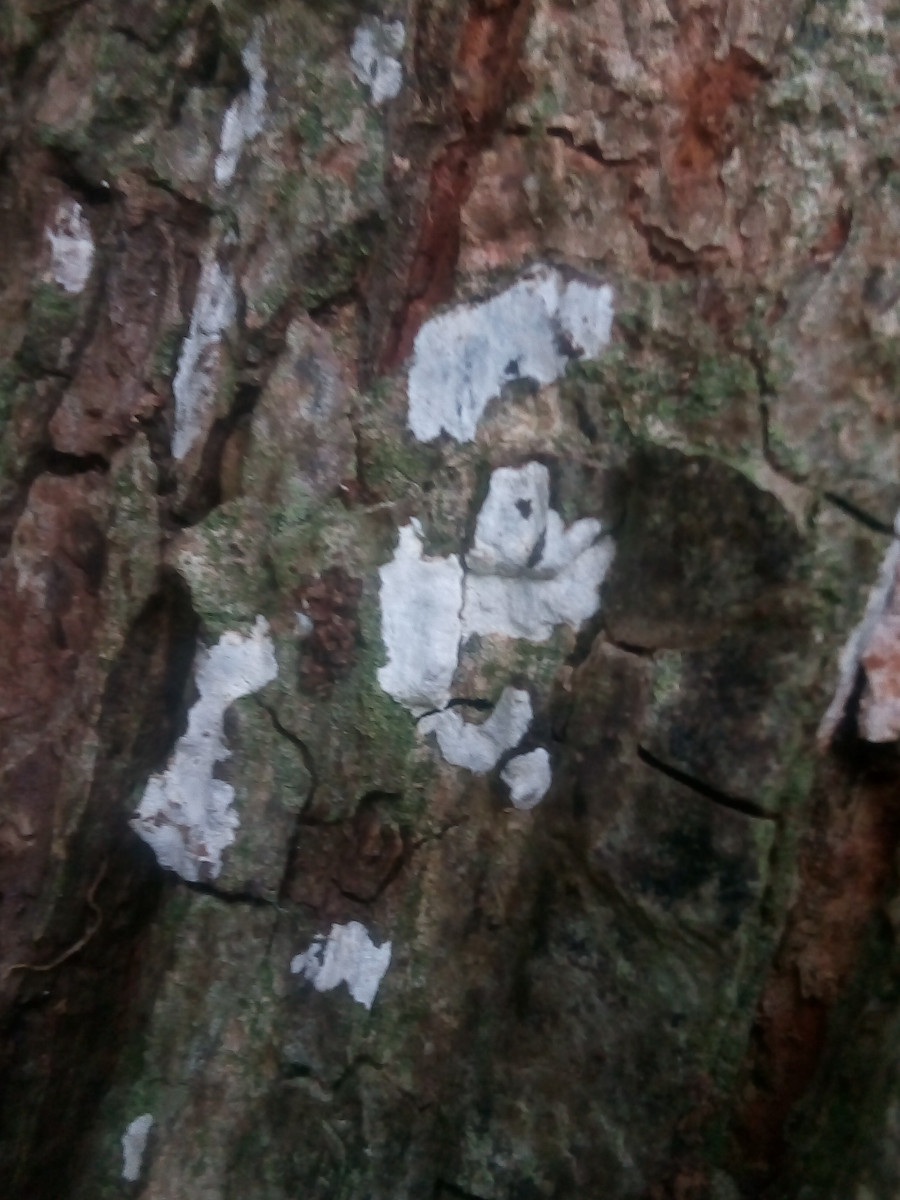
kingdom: Fungi
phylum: Basidiomycota
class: Agaricomycetes
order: Agaricales
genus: Dendrothele
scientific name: Dendrothele acerina
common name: navr-kalkplet
